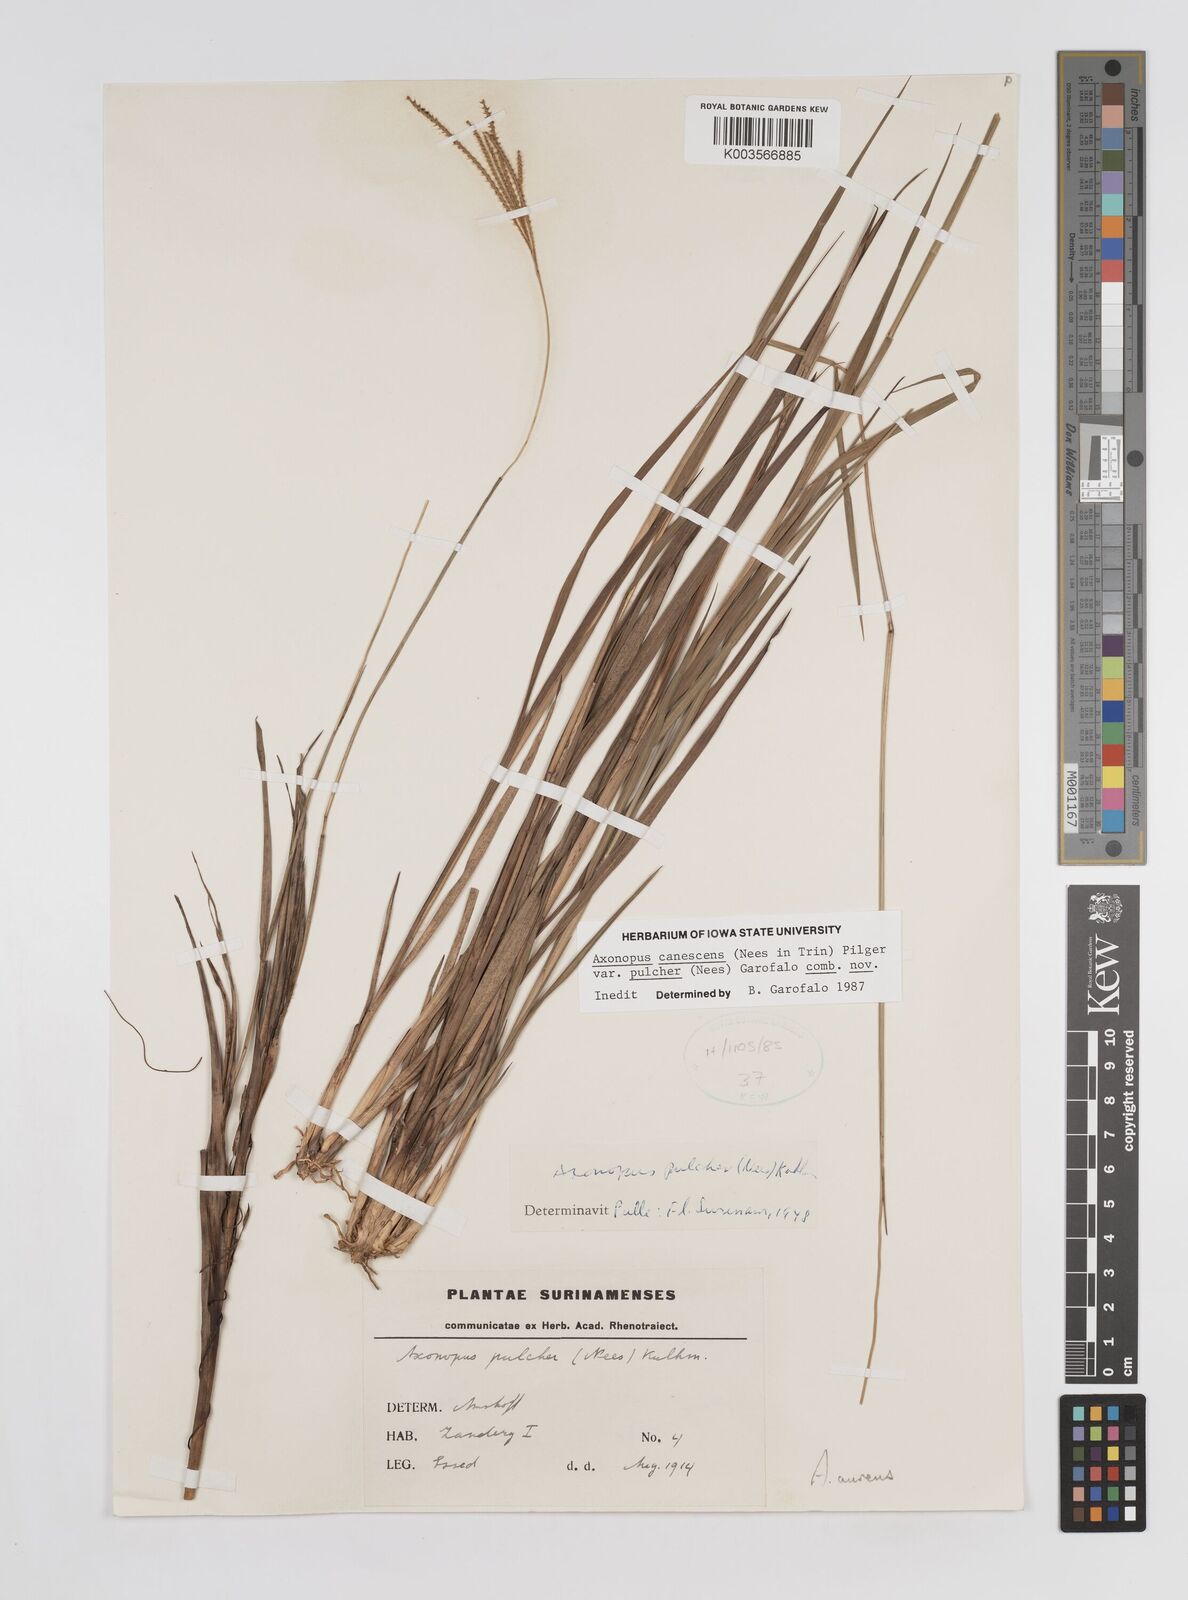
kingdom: Plantae
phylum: Tracheophyta
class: Liliopsida
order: Poales
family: Poaceae
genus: Axonopus
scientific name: Axonopus aureus
